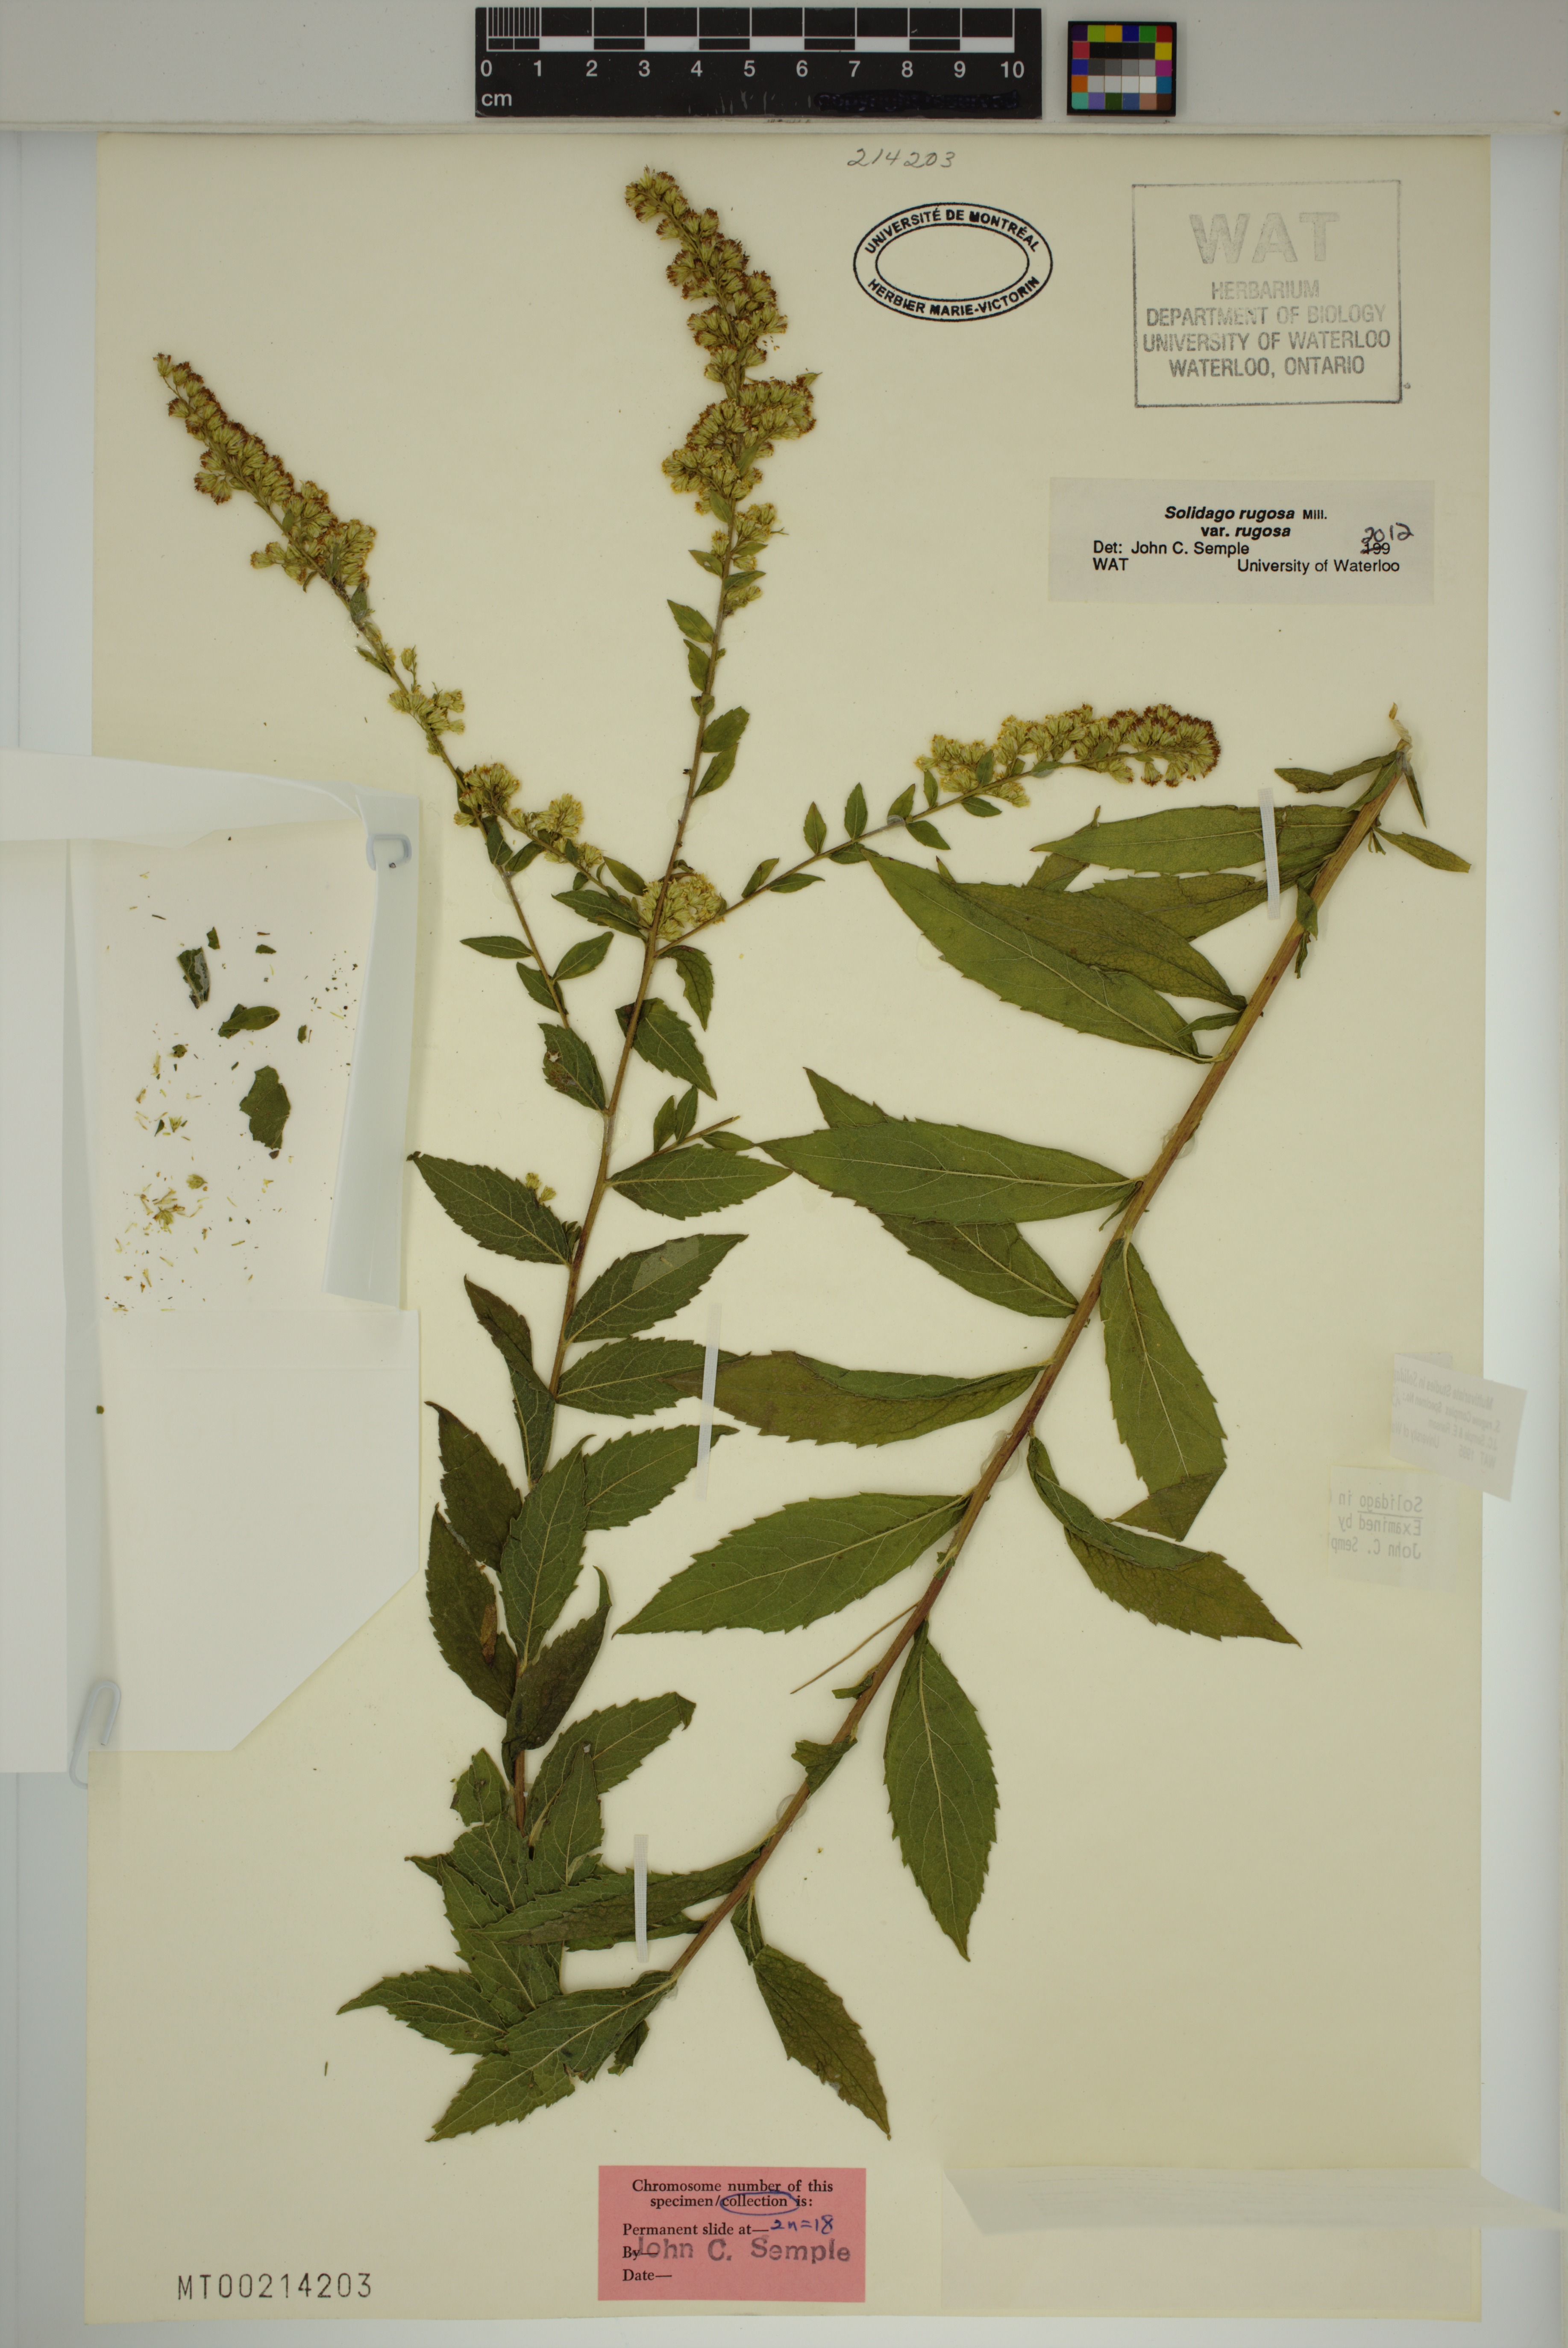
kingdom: Plantae
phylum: Tracheophyta
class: Magnoliopsida
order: Asterales
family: Asteraceae
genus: Solidago
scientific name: Solidago rugosa
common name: Rough-stemmed goldenrod
